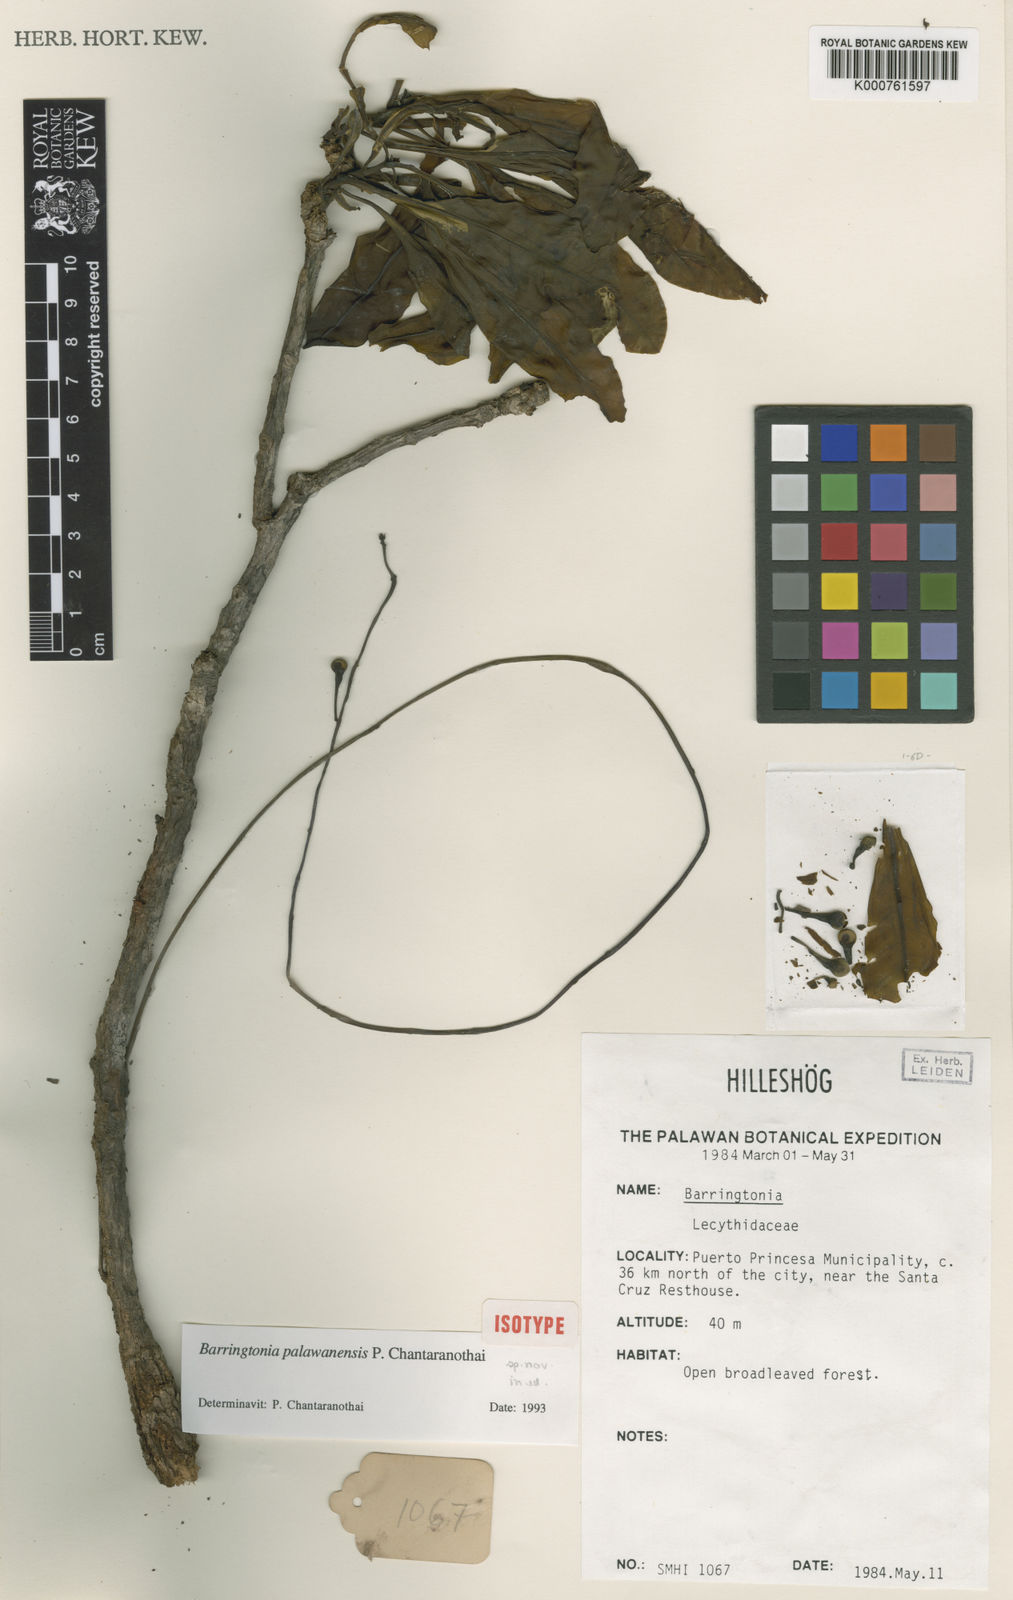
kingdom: Plantae
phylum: Tracheophyta
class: Magnoliopsida
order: Ericales
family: Lecythidaceae
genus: Barringtonia
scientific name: Barringtonia palawanensis
